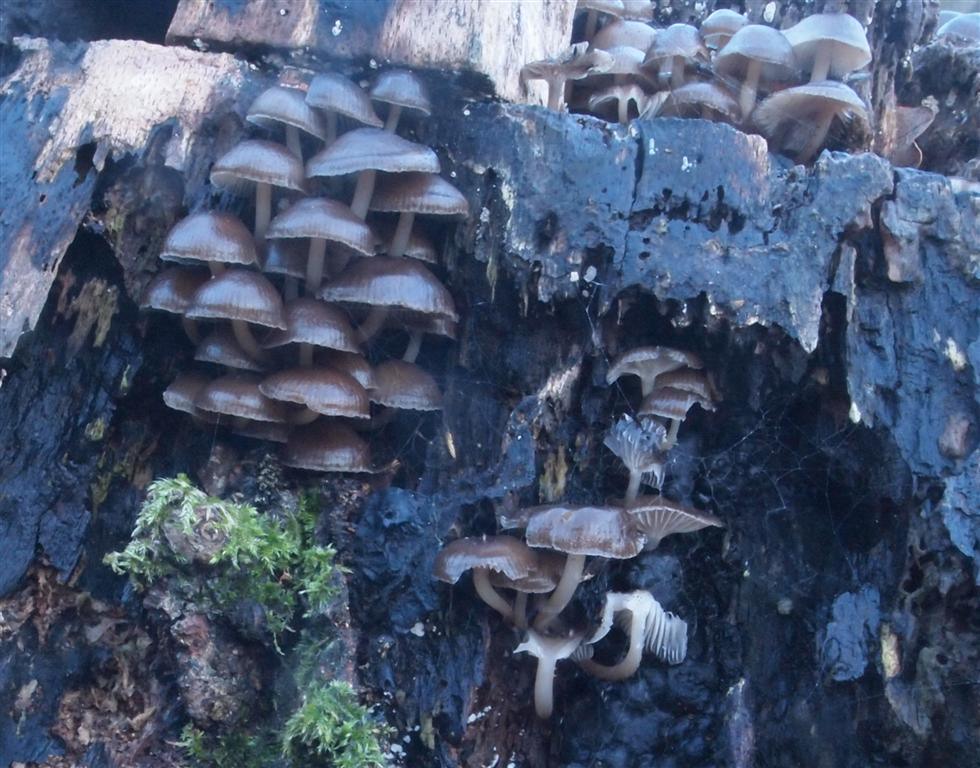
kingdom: Fungi
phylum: Basidiomycota
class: Agaricomycetes
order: Agaricales
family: Mycenaceae
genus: Mycena
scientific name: Mycena tintinnabulum
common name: vinter-huesvamp
